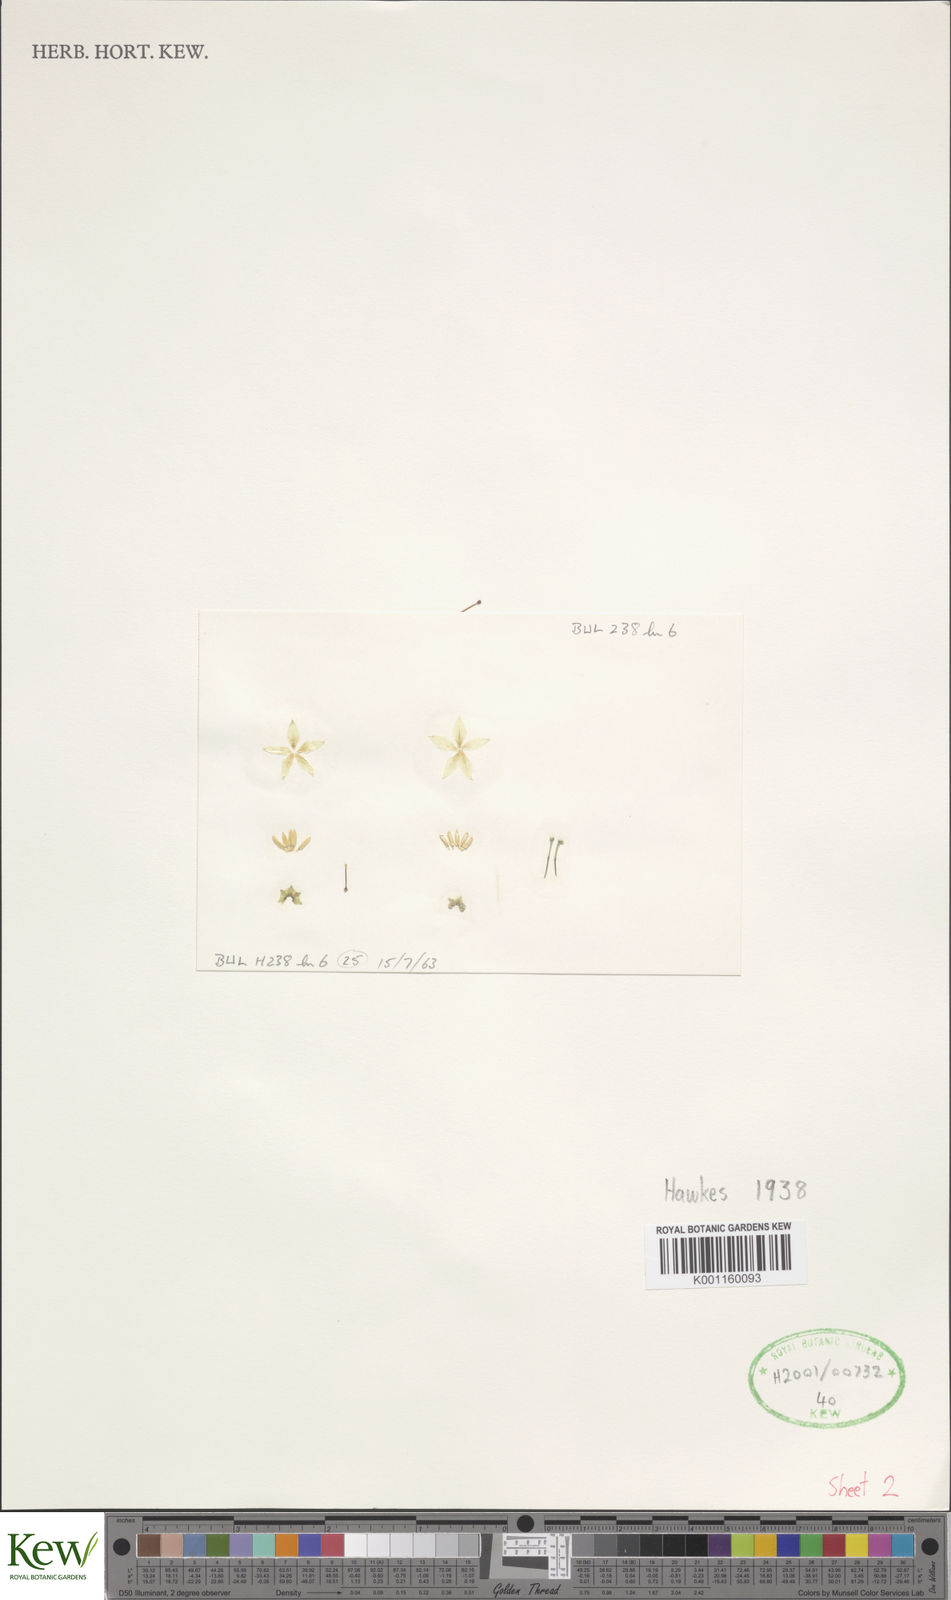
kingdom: Plantae
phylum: Tracheophyta
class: Magnoliopsida
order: Solanales
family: Solanaceae
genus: Solanum
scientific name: Solanum bulbocastanum
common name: Ornamental nightshade
